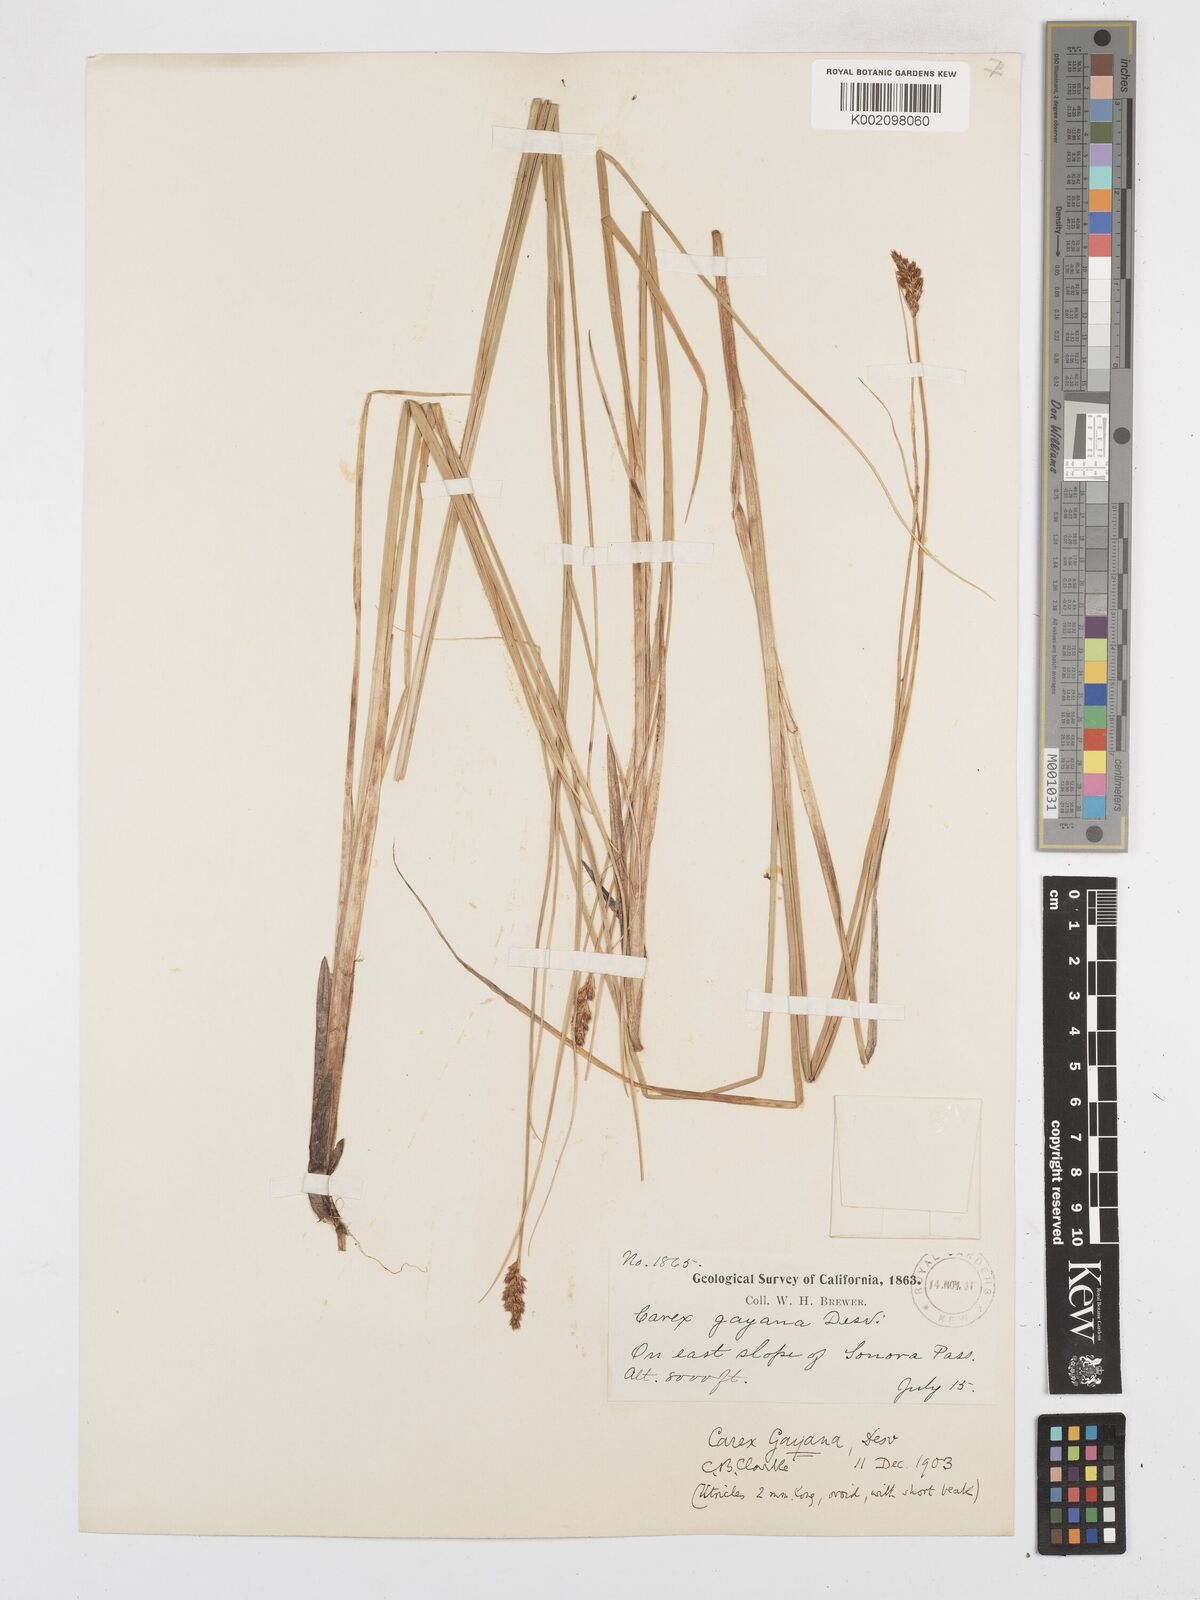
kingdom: Plantae
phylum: Tracheophyta
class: Liliopsida
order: Poales
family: Cyperaceae
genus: Carex
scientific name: Carex simulata
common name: Analogue sedge
